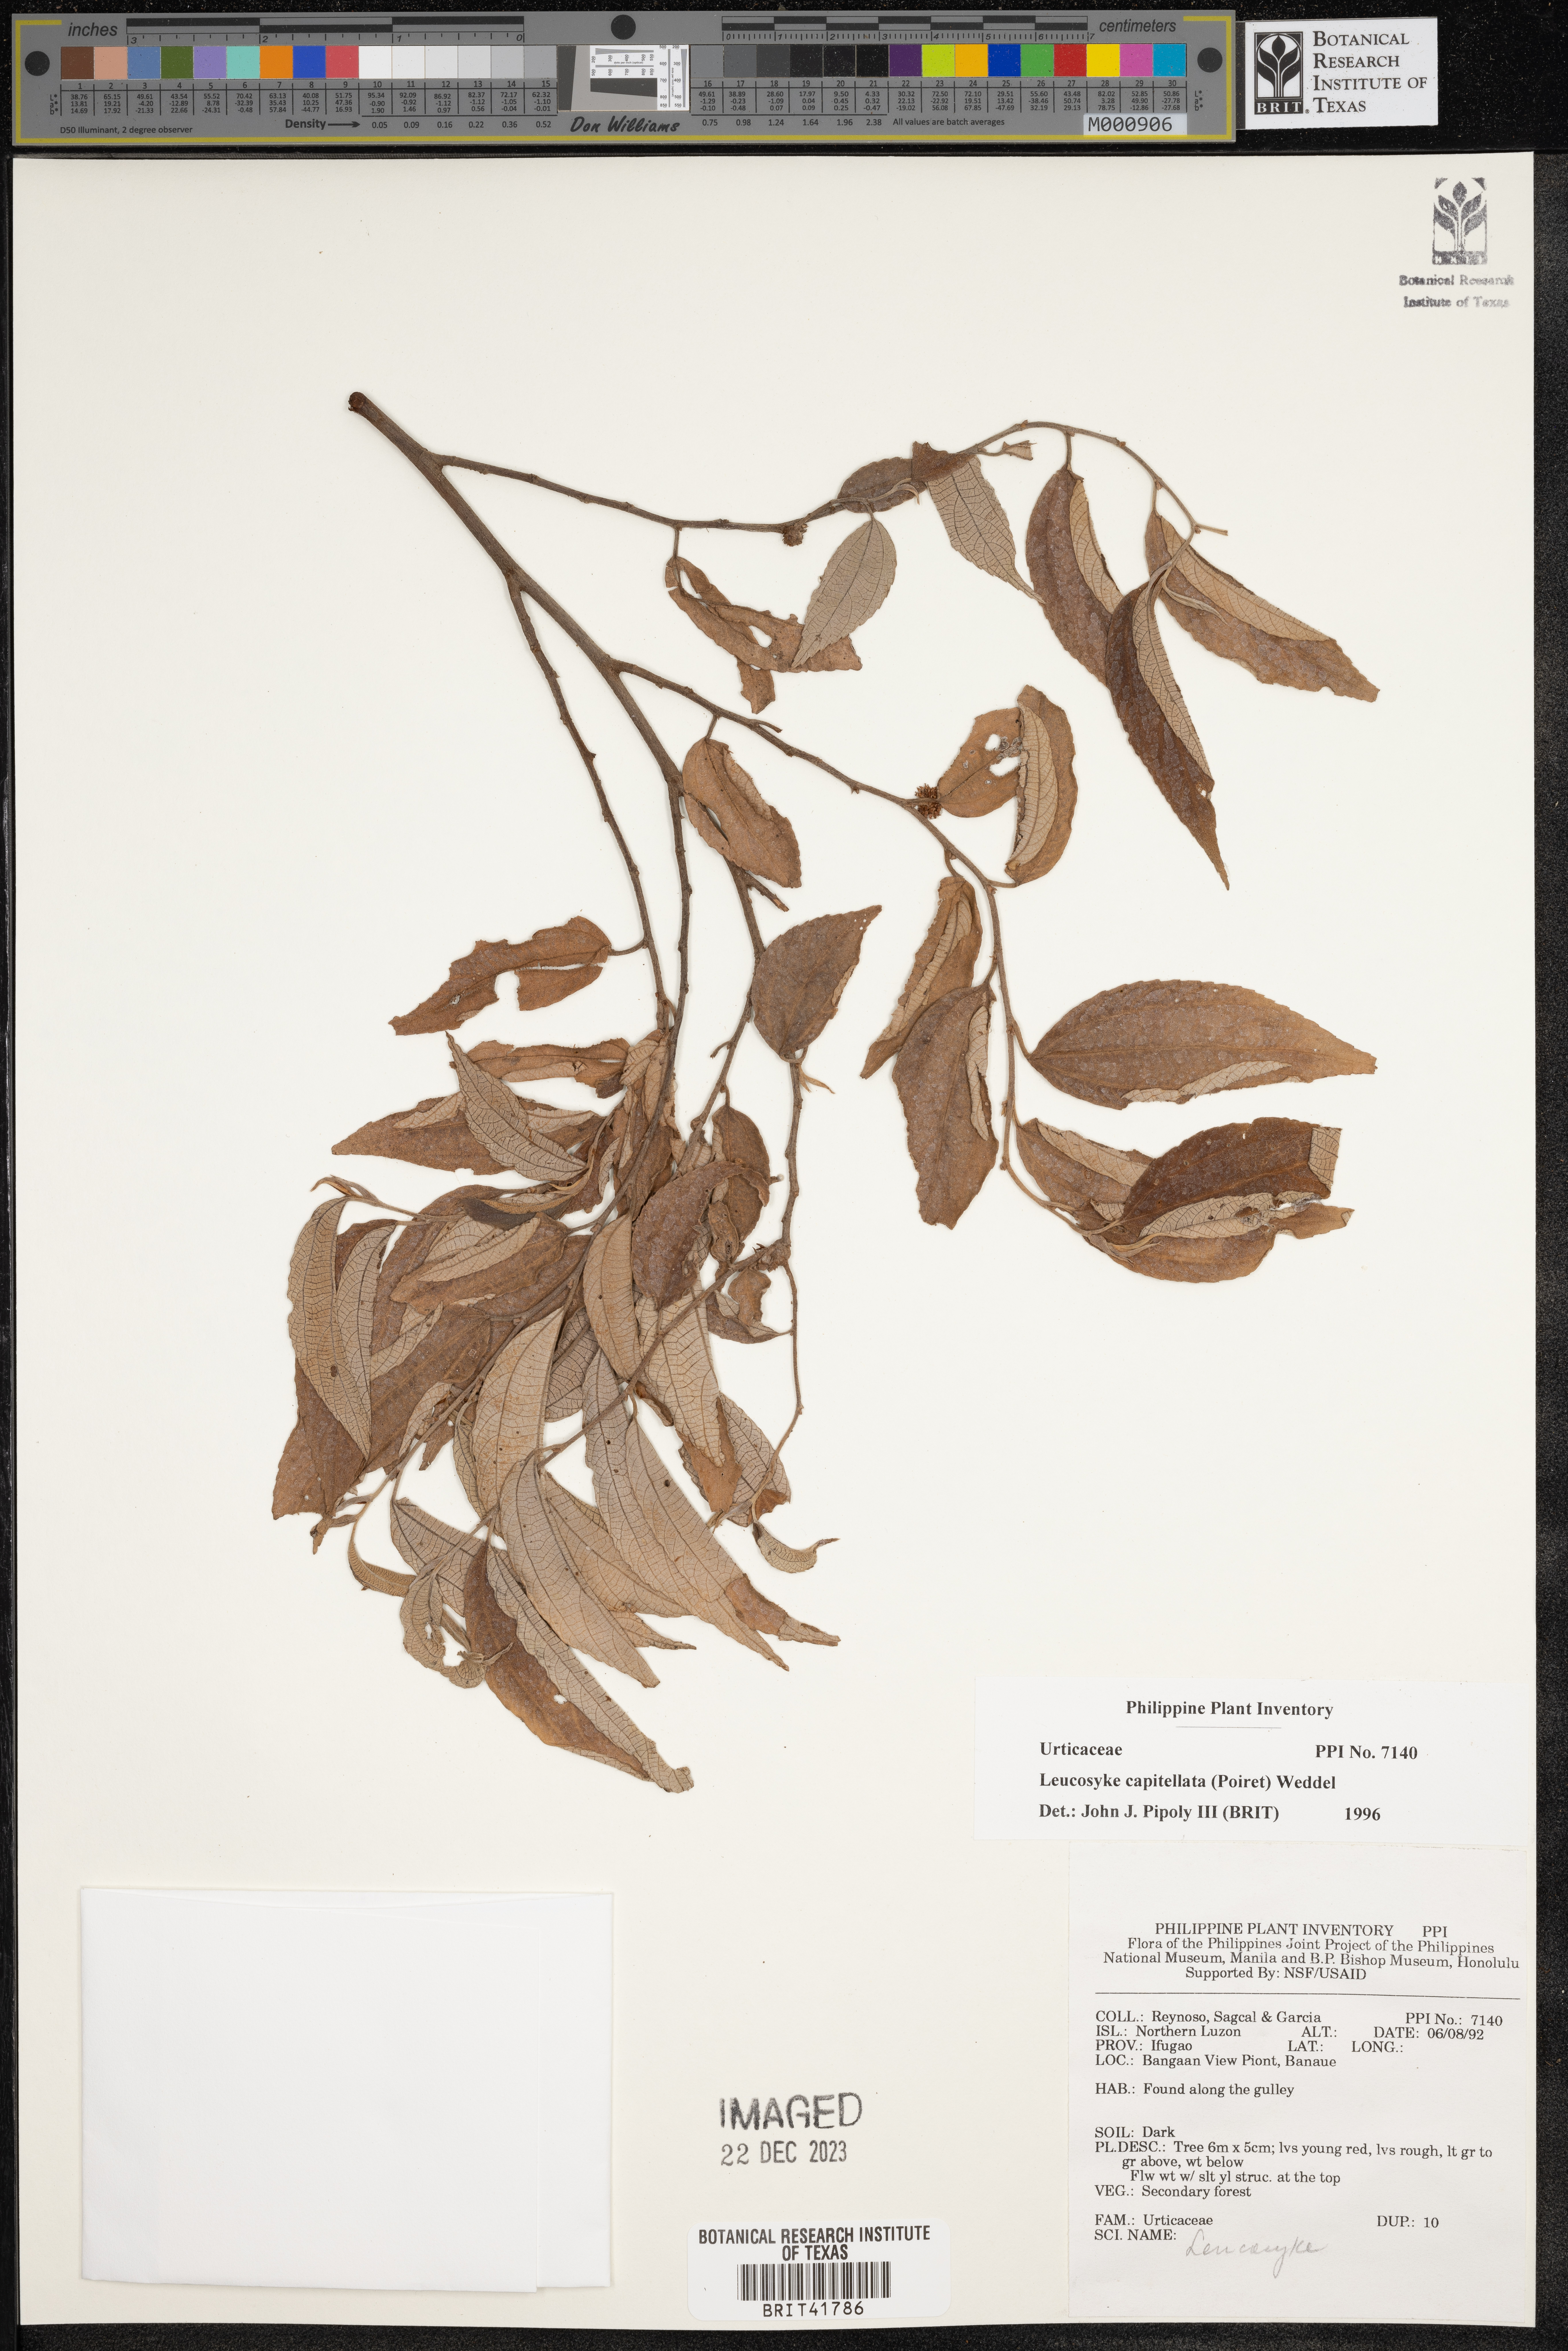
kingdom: Plantae
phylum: Tracheophyta
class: Magnoliopsida
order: Rosales
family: Urticaceae
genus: Leucosyke
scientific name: Leucosyke capitellata
